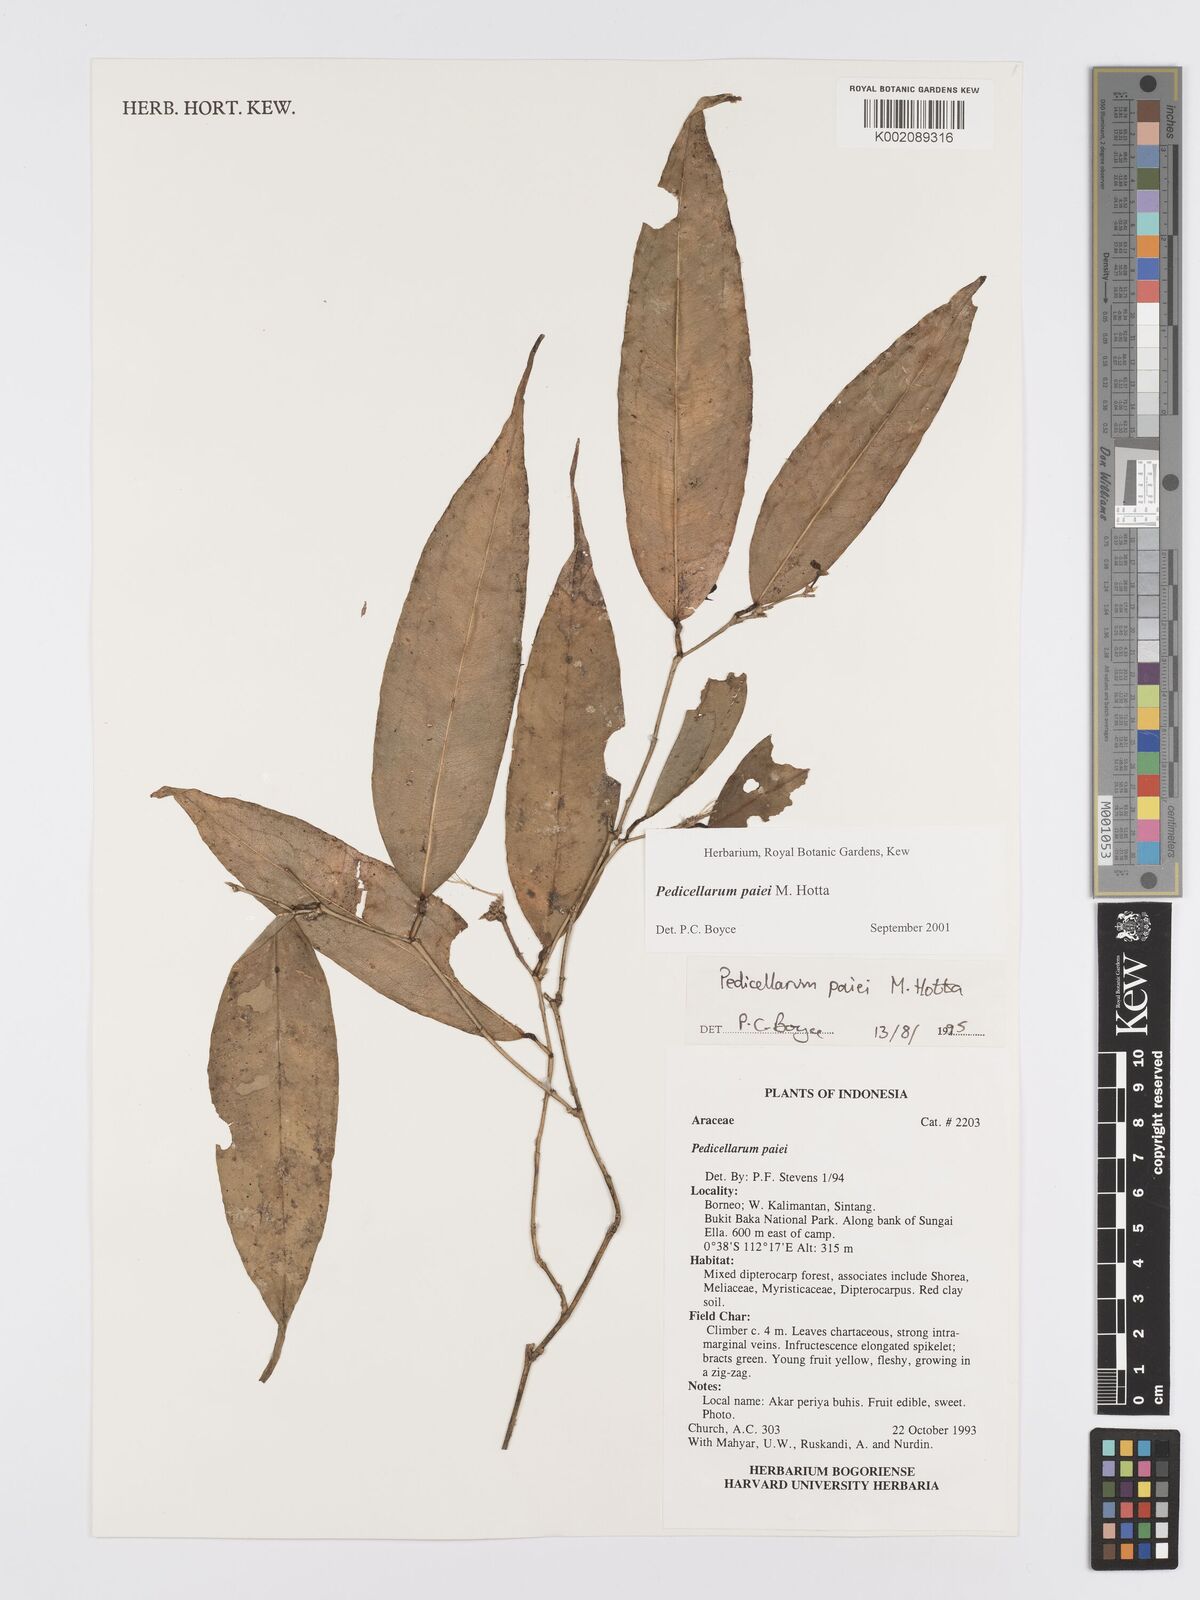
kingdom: Plantae
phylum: Tracheophyta
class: Liliopsida
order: Alismatales
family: Araceae
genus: Pothos
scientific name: Pothos paiei
